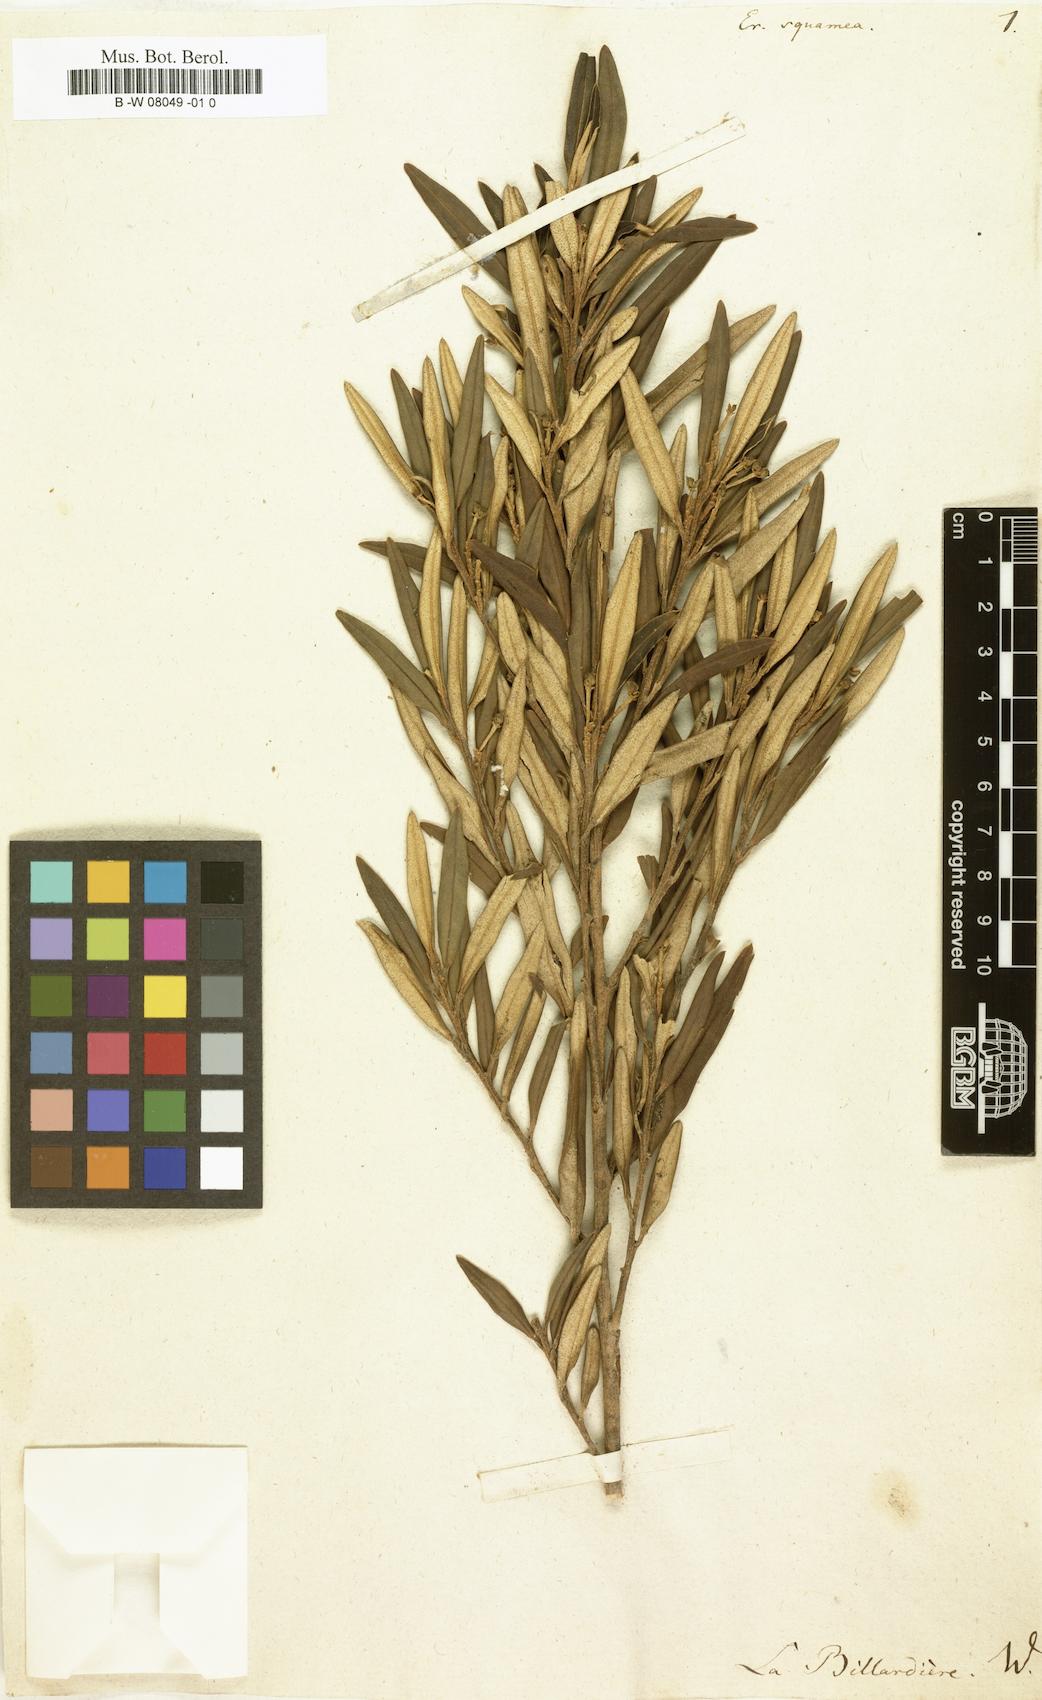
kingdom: Plantae
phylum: Tracheophyta
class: Magnoliopsida
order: Sapindales
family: Rutaceae
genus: Nematolepis
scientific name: Nematolepis squamea
